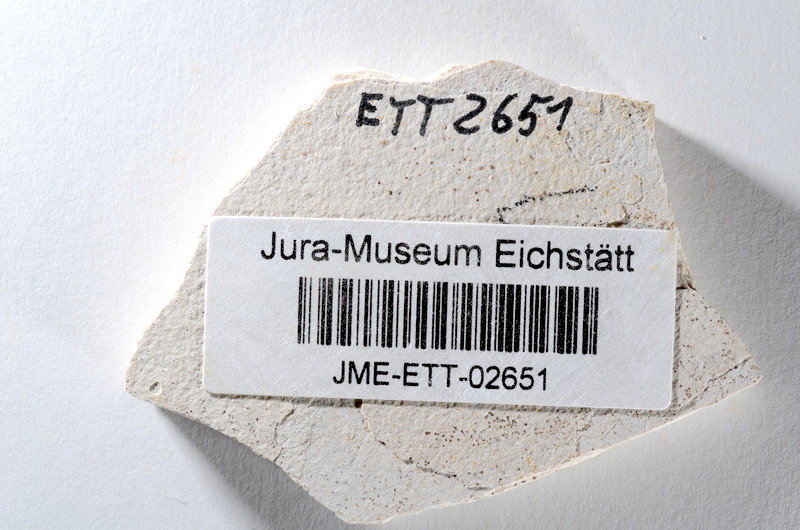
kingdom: Animalia
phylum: Chordata
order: Salmoniformes
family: Orthogonikleithridae
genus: Orthogonikleithrus
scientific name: Orthogonikleithrus hoelli
